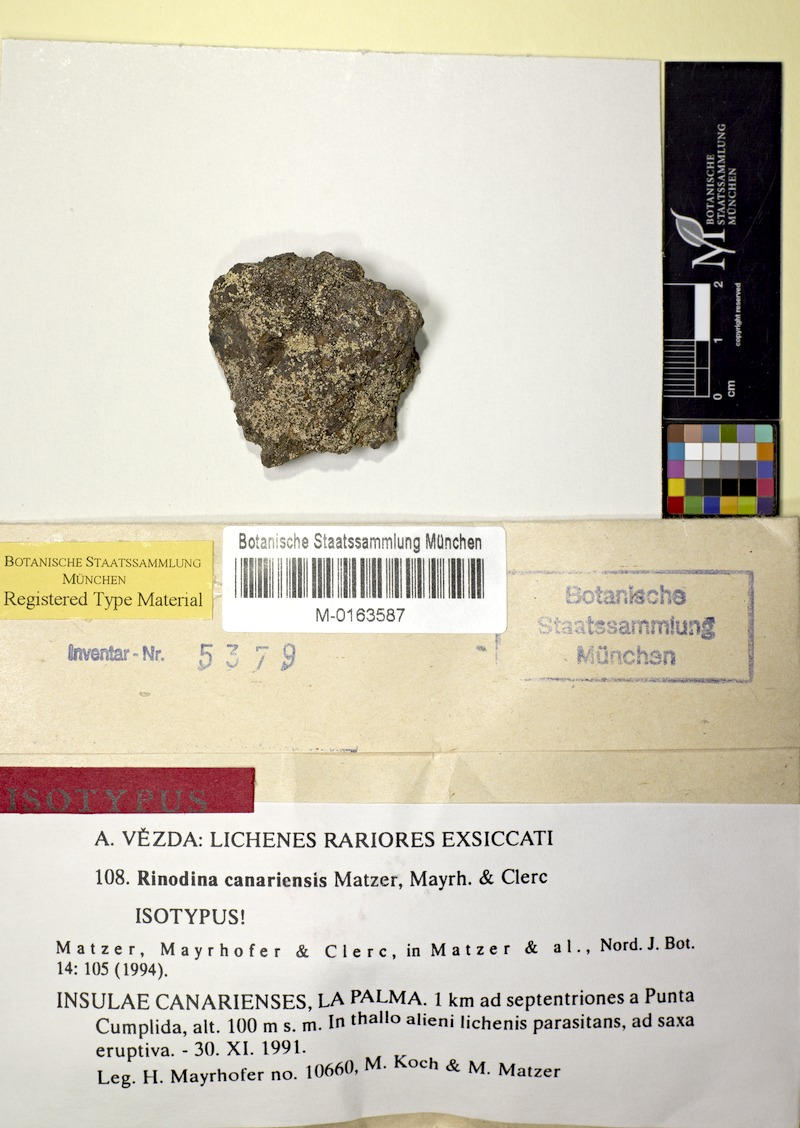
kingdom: Fungi
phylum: Ascomycota
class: Lecanoromycetes
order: Caliciales
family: Physciaceae
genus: Rinodina
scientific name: Rinodina canariensis
